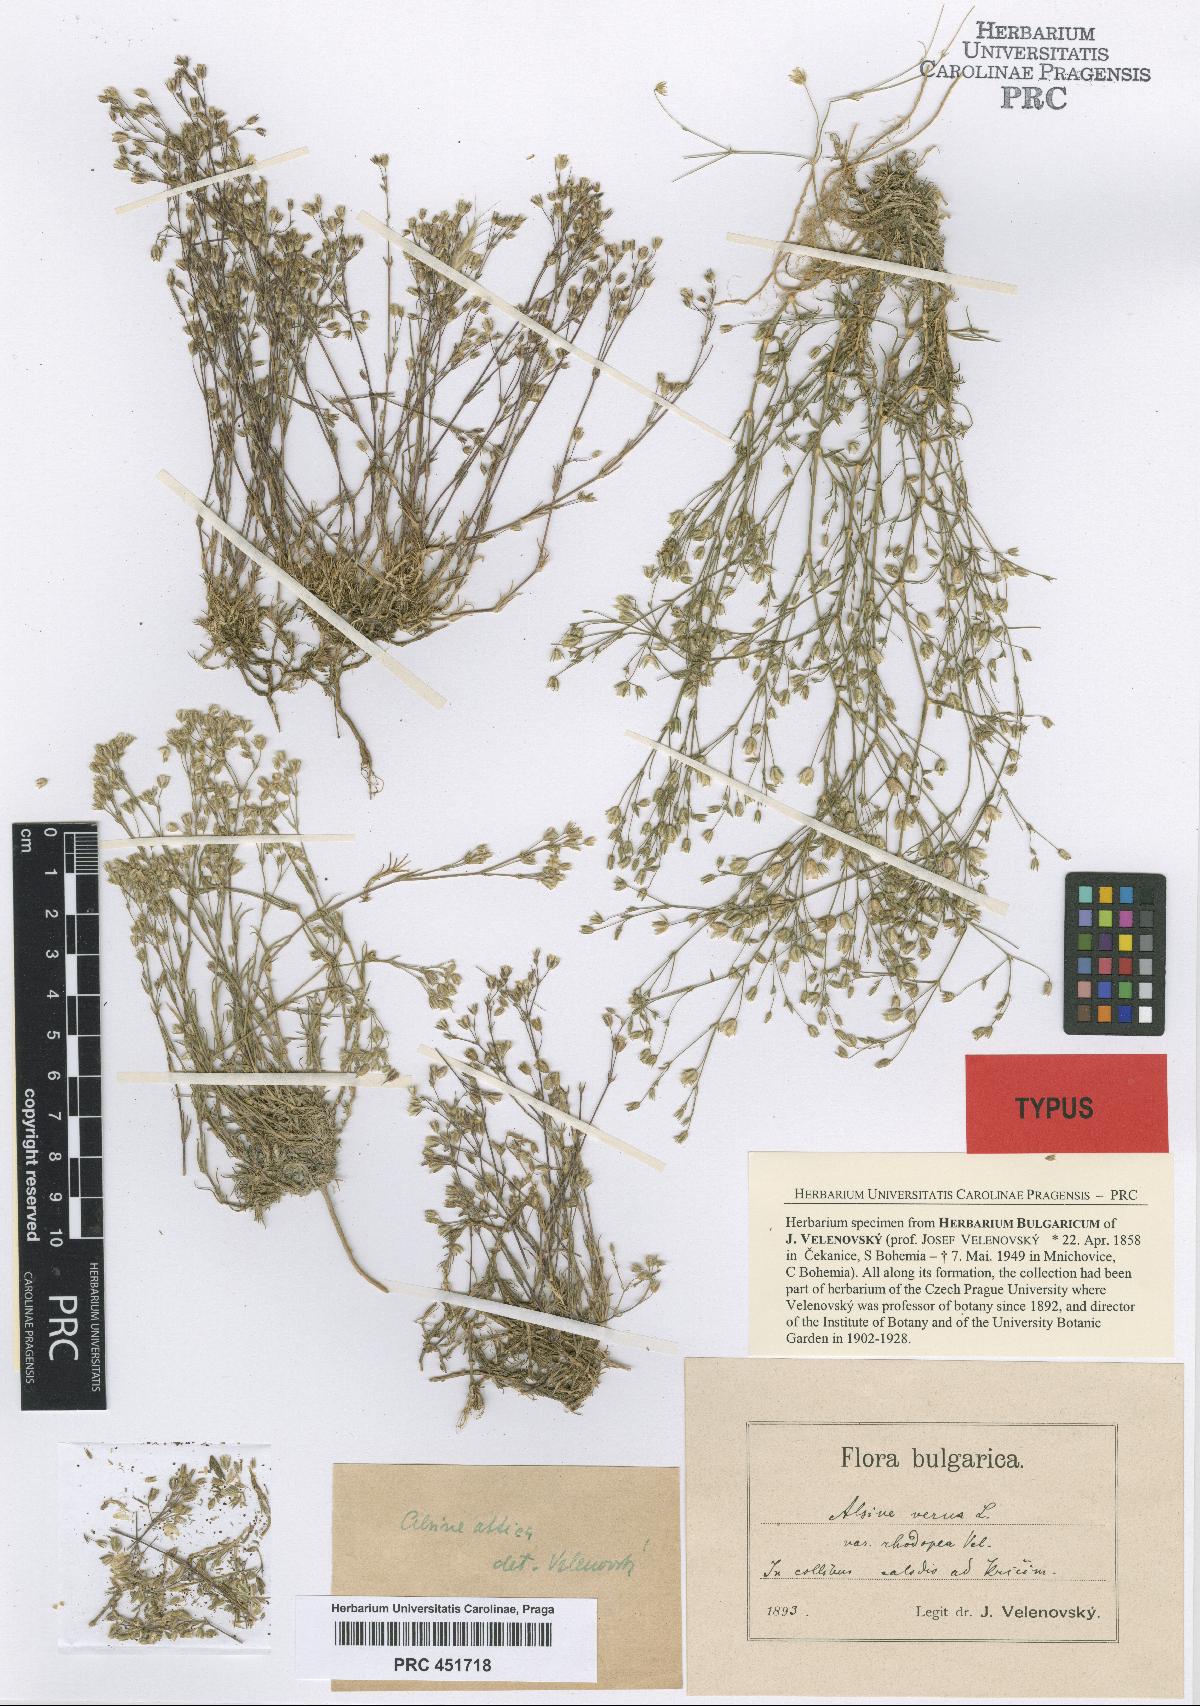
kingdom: Plantae
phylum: Tracheophyta
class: Magnoliopsida
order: Caryophyllales
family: Caryophyllaceae
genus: Sabulina
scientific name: Sabulina verna
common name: Spring sandwort
